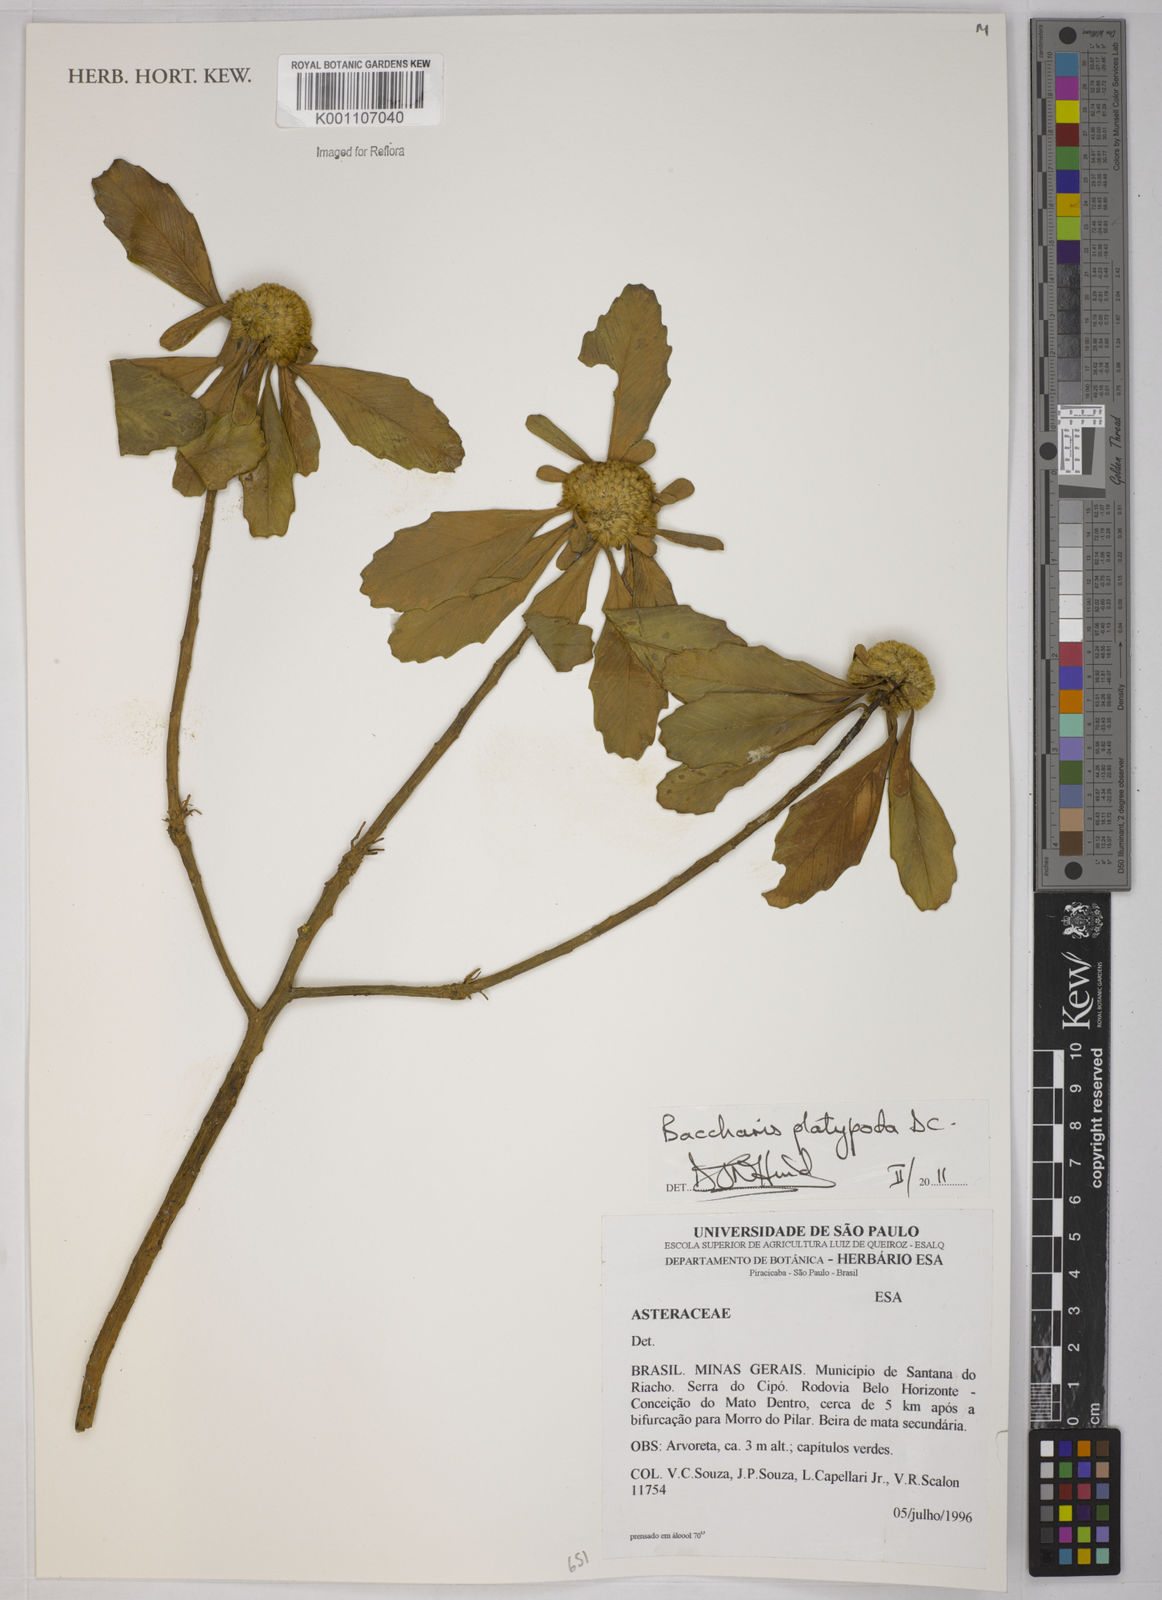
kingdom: Plantae
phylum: Tracheophyta
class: Magnoliopsida
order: Asterales
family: Asteraceae
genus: Baccharis
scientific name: Baccharis platypoda
